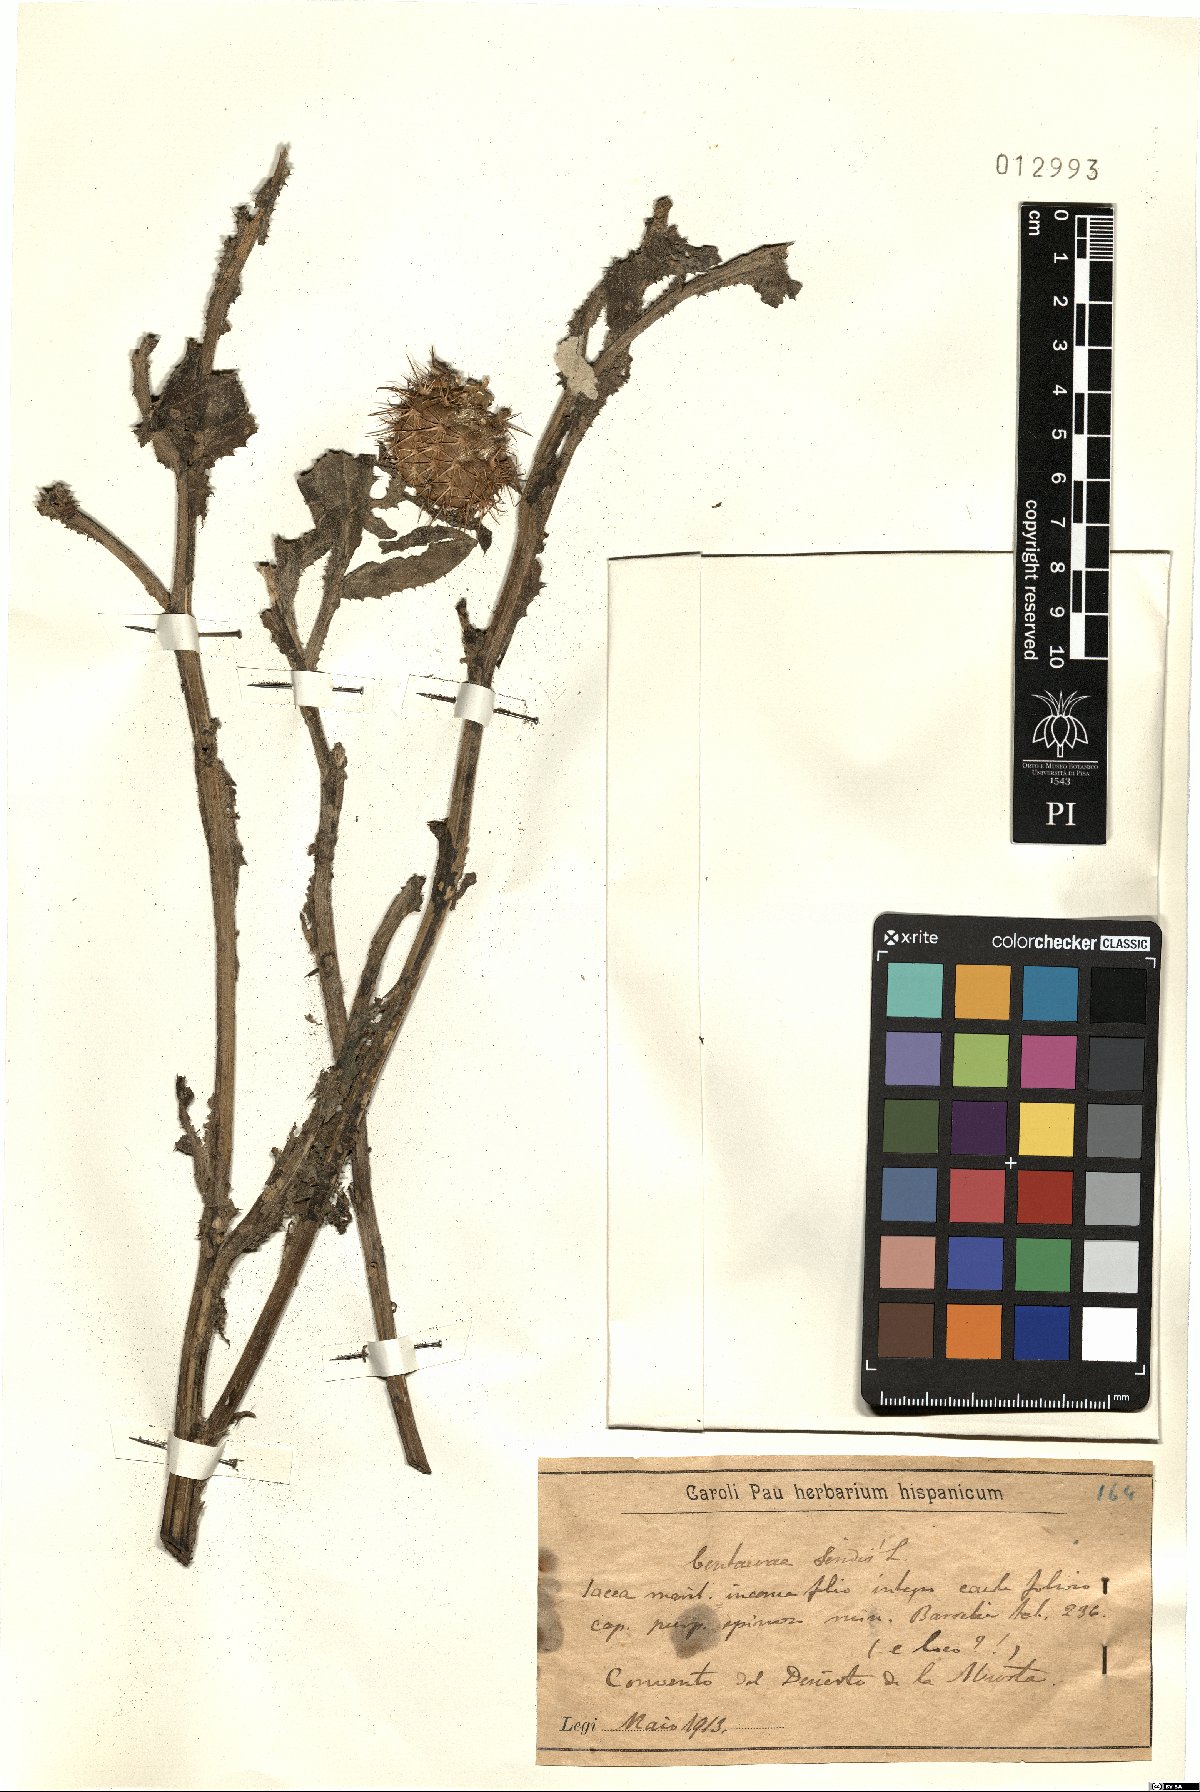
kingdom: Plantae
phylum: Tracheophyta
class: Magnoliopsida
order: Asterales
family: Asteraceae
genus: Centaurea
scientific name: Centaurea seridis
